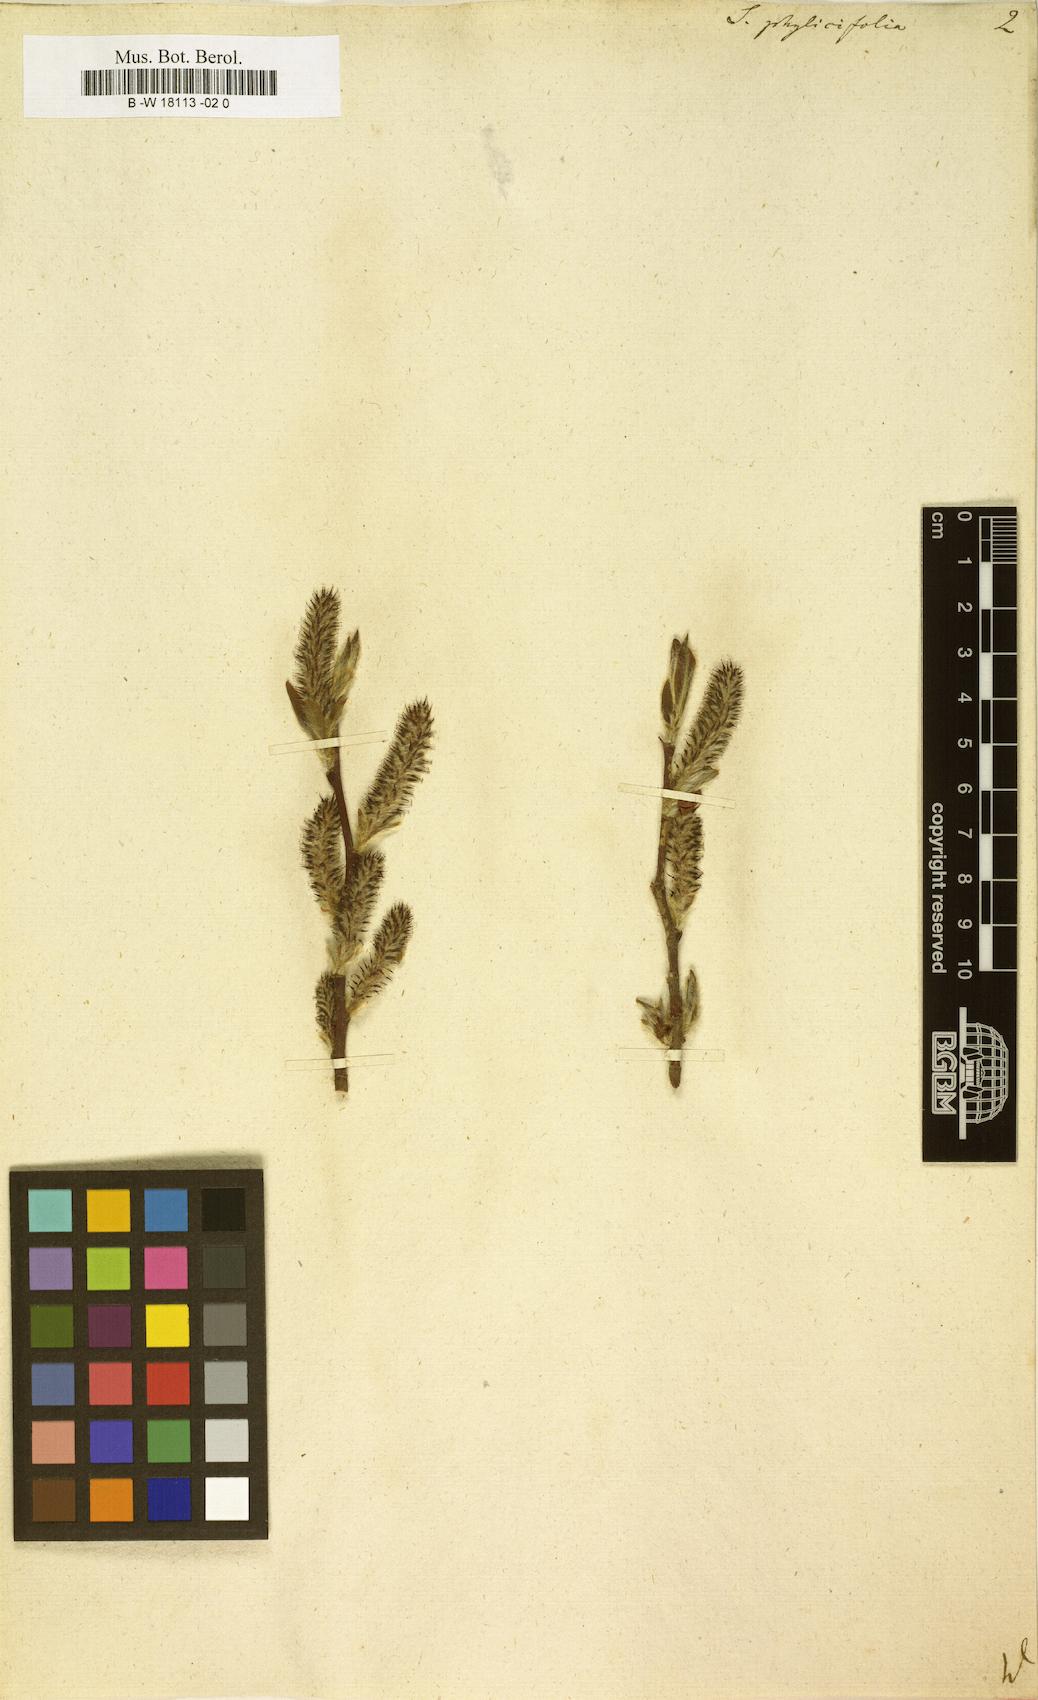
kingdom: Plantae
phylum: Tracheophyta
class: Magnoliopsida
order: Malpighiales
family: Salicaceae
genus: Salix
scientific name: Salix phylicifolia
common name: Tea-leaved willow
